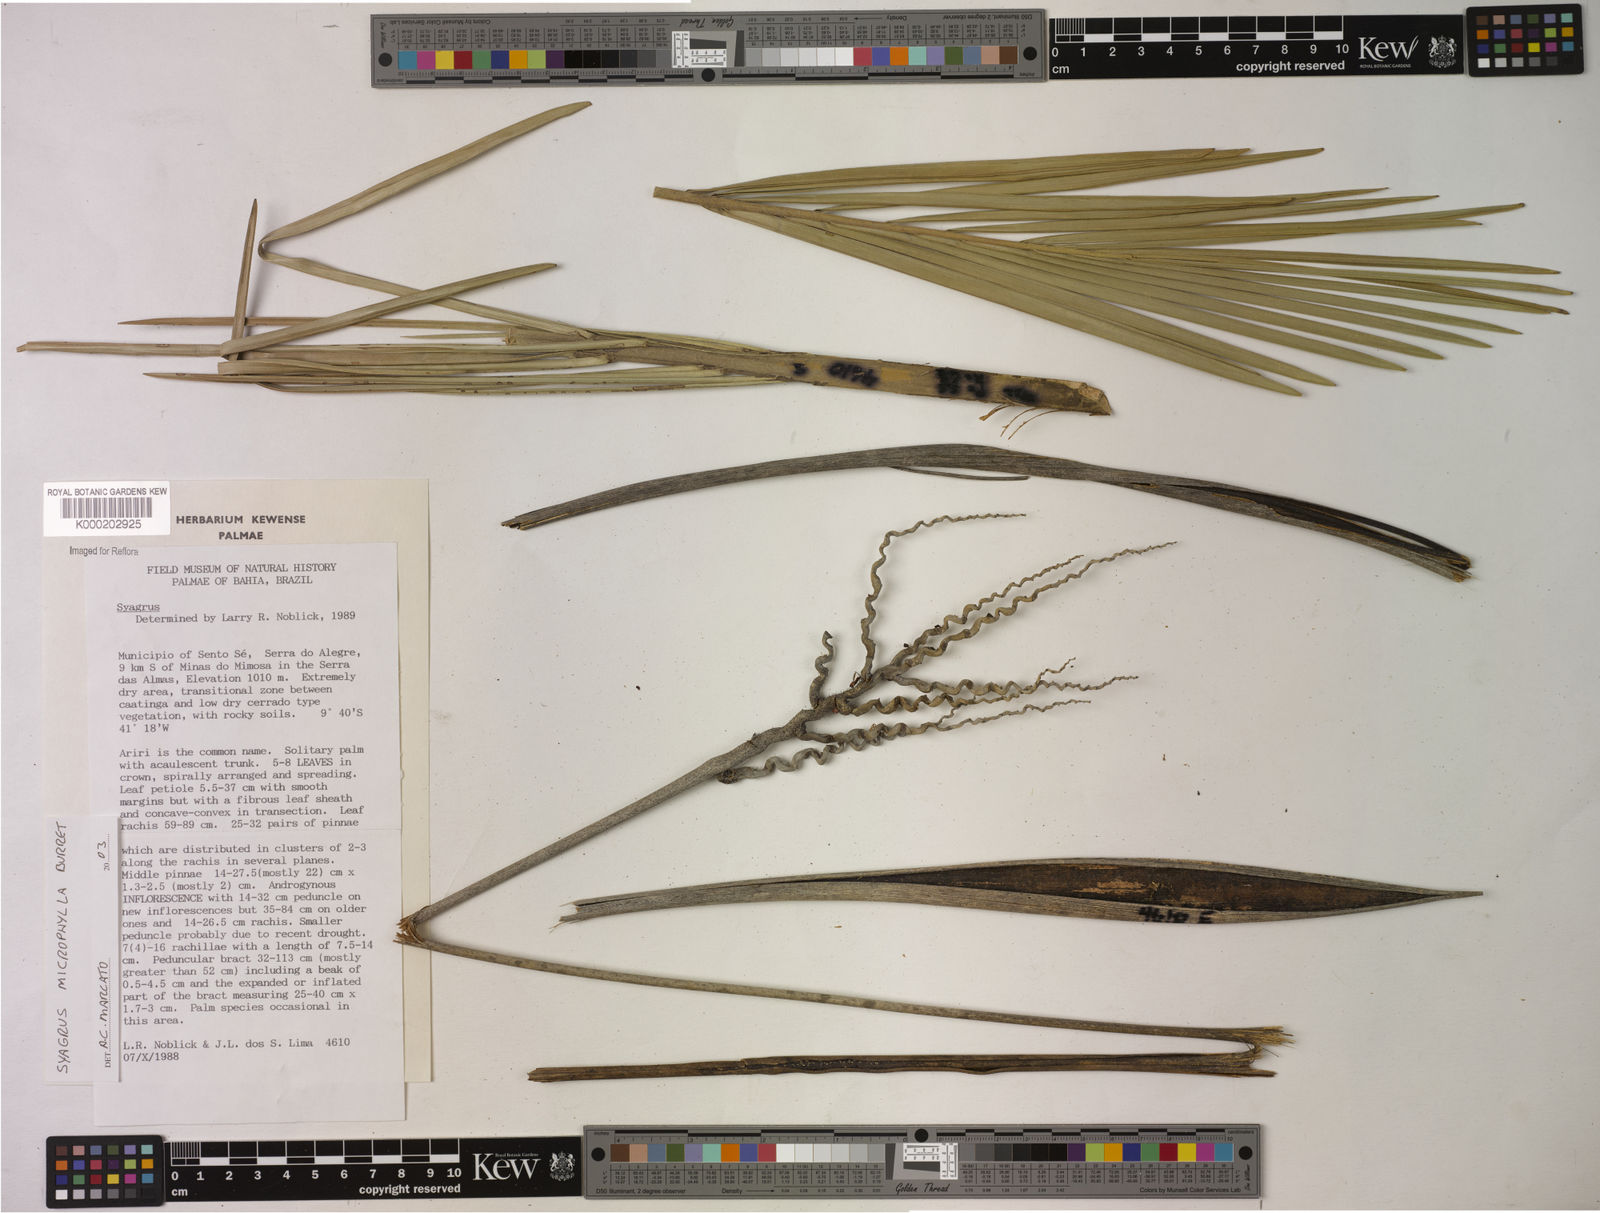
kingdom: Plantae
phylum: Tracheophyta
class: Liliopsida
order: Arecales
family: Arecaceae
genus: Syagrus
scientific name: Syagrus microphylla
